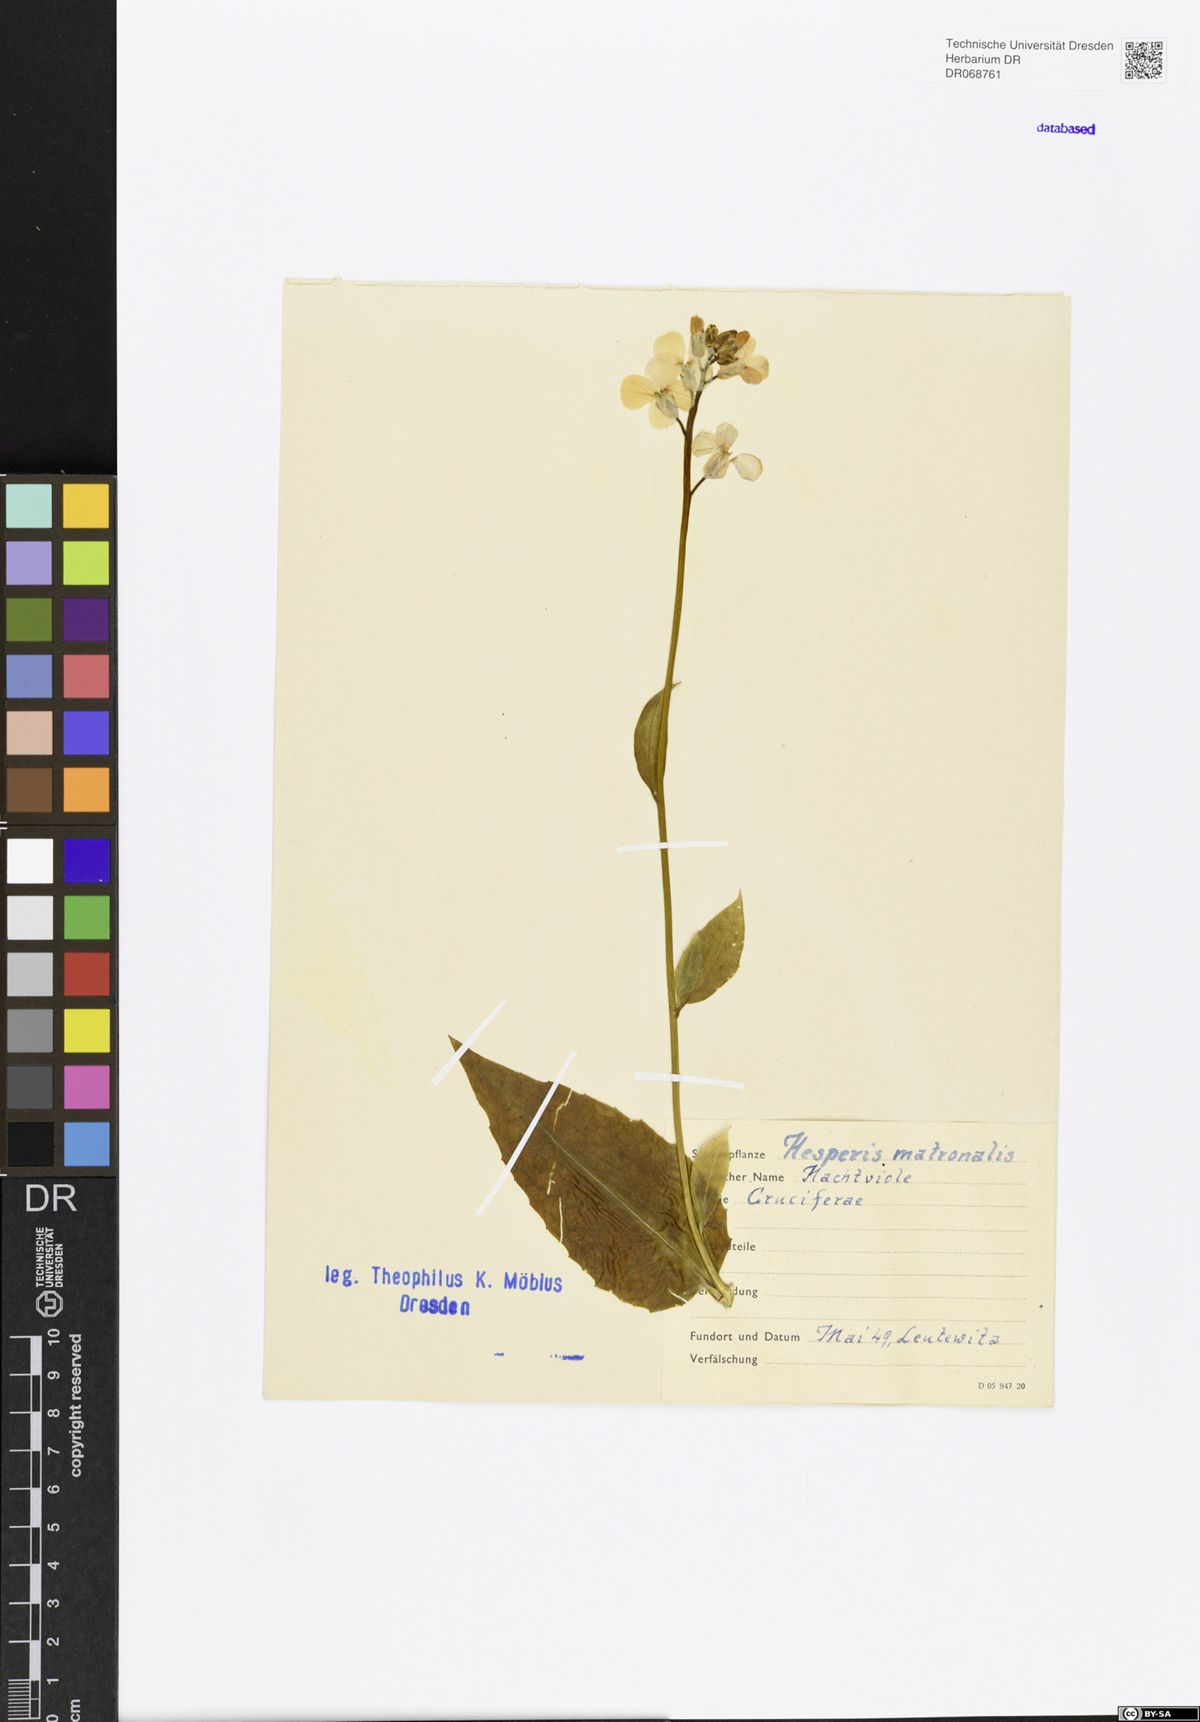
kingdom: Plantae
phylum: Tracheophyta
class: Magnoliopsida
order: Brassicales
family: Brassicaceae
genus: Hesperis
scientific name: Hesperis matronalis
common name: Dame's-violet
